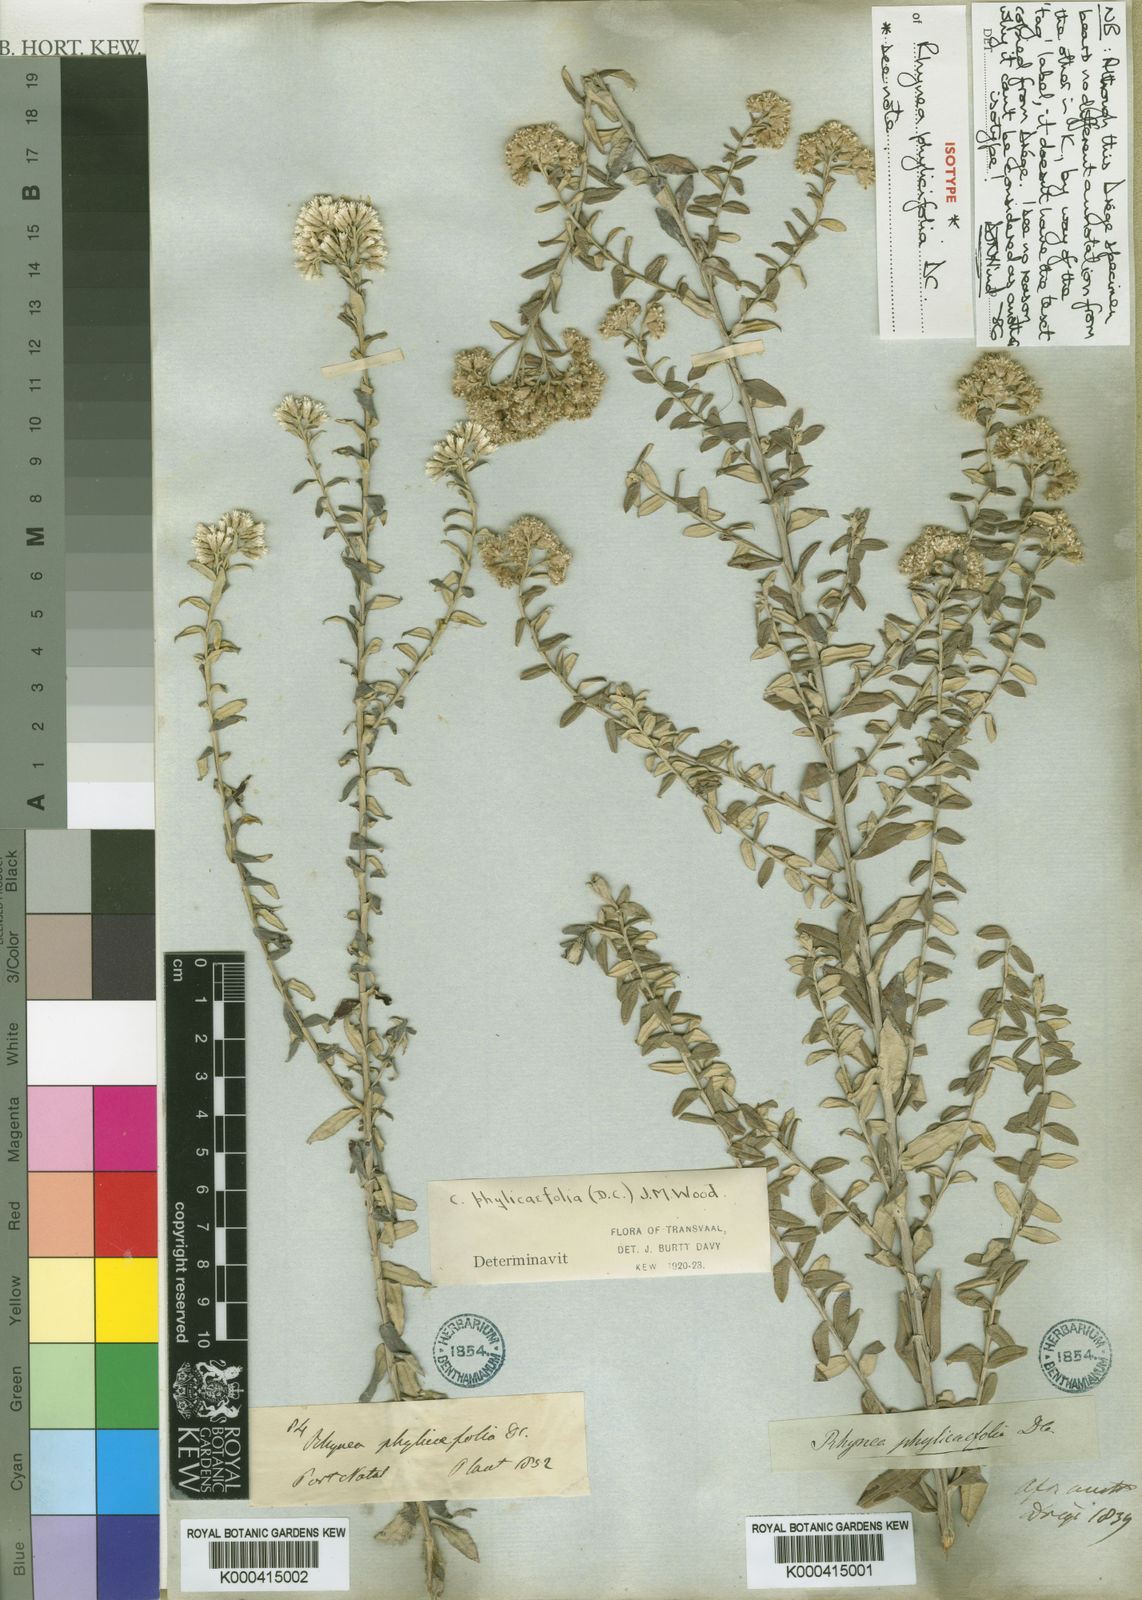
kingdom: Plantae
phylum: Tracheophyta
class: Magnoliopsida
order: Asterales
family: Asteraceae
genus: Tenrhynea
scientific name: Tenrhynea phylicifolia
